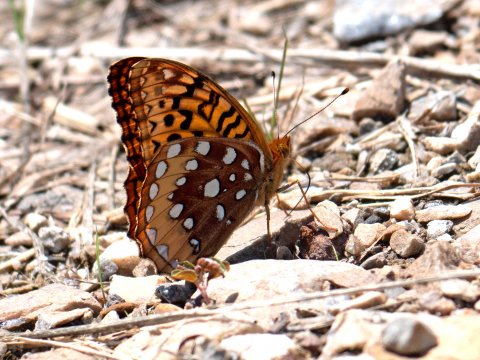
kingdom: Animalia
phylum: Arthropoda
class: Insecta
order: Lepidoptera
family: Nymphalidae
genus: Speyeria
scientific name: Speyeria cybele
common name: Great Spangled Fritillary
